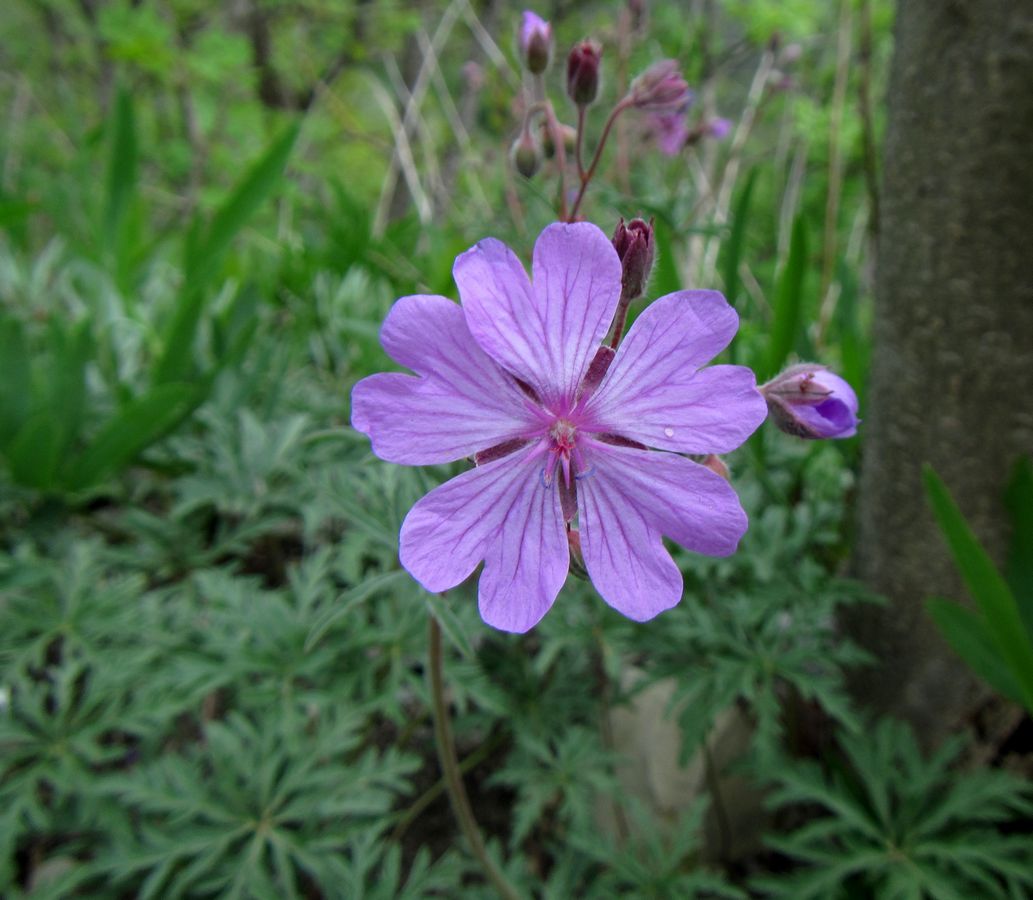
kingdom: Plantae
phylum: Tracheophyta
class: Magnoliopsida
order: Geraniales
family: Geraniaceae
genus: Geranium
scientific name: Geranium tuberosum
